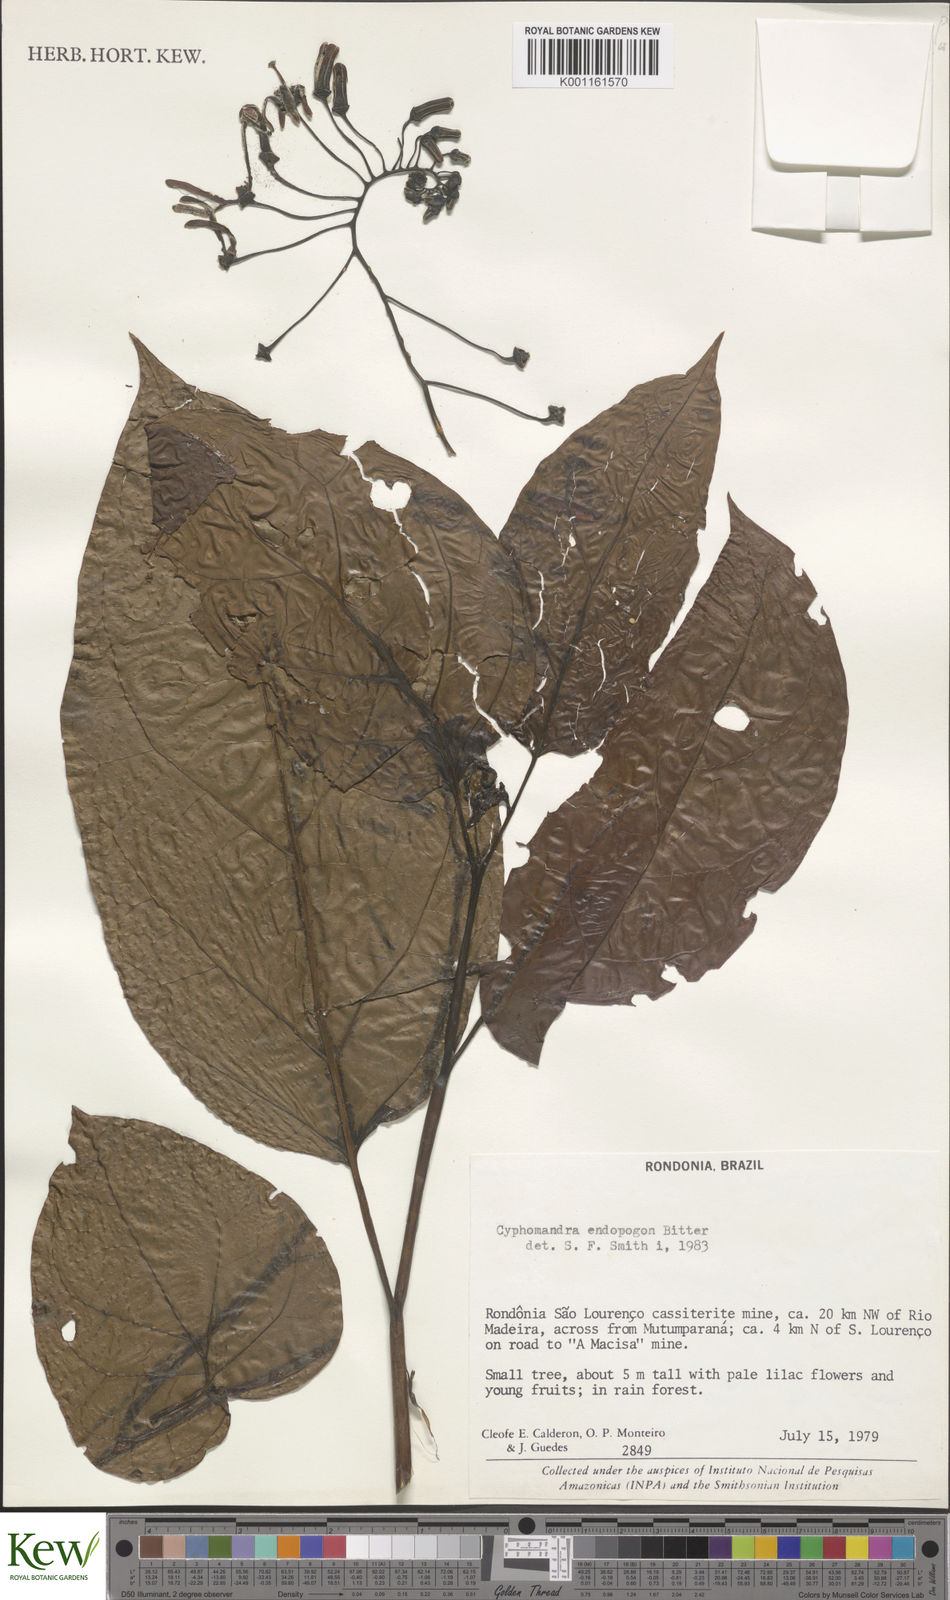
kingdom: Plantae
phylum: Tracheophyta
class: Magnoliopsida
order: Solanales
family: Solanaceae
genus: Solanum
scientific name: Solanum endopogon
